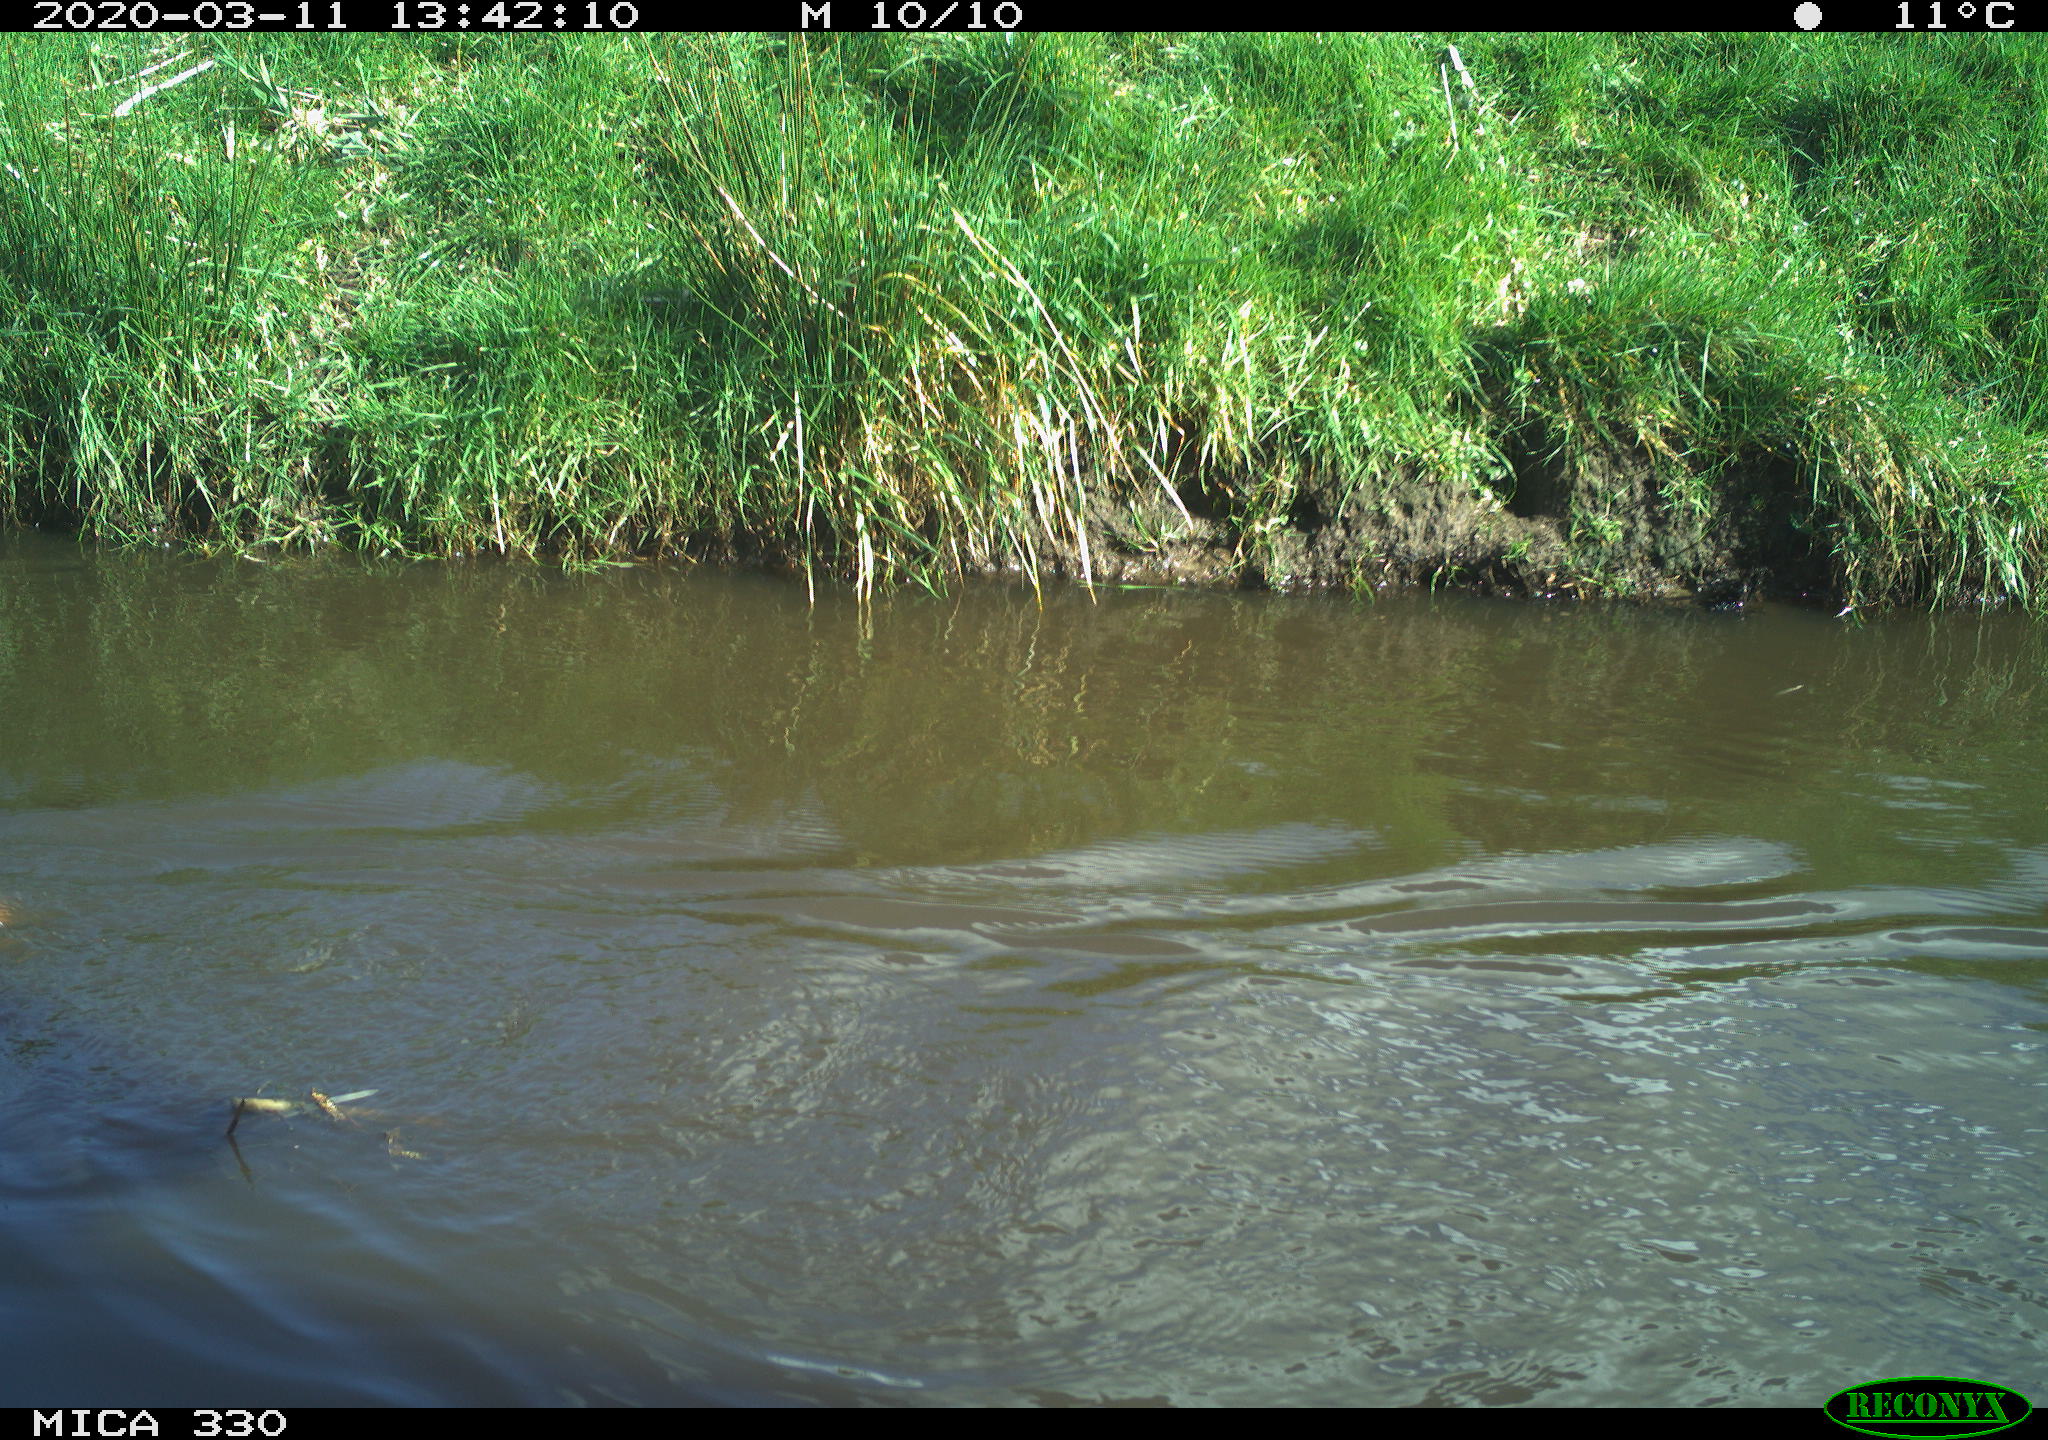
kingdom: Animalia
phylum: Chordata
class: Aves
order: Anseriformes
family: Anatidae
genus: Anas
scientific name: Anas platyrhynchos
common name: Mallard
